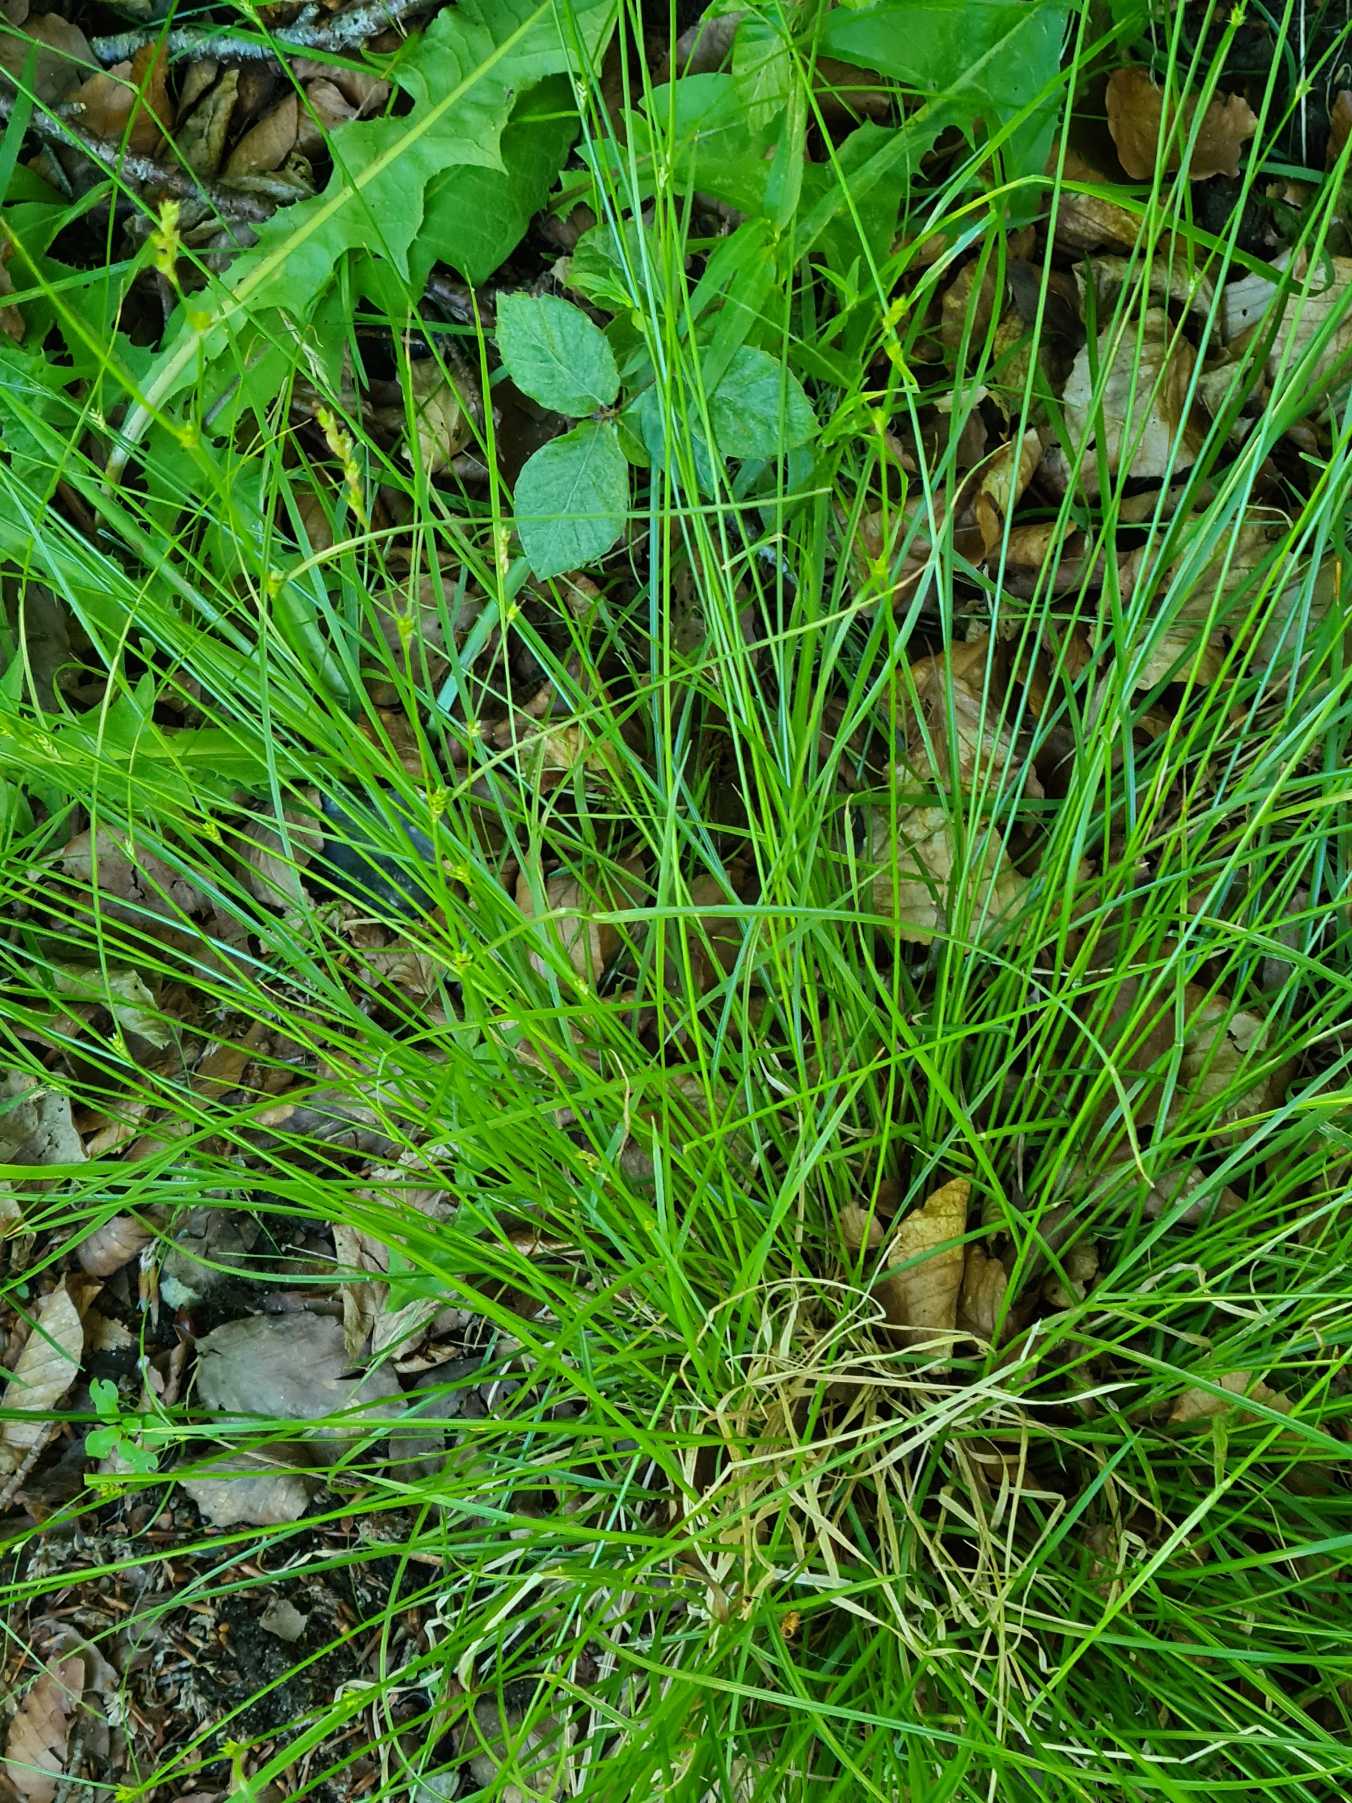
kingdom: Plantae
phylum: Tracheophyta
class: Liliopsida
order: Poales
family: Cyperaceae
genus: Carex
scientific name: Carex remota
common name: Akselblomstret star
